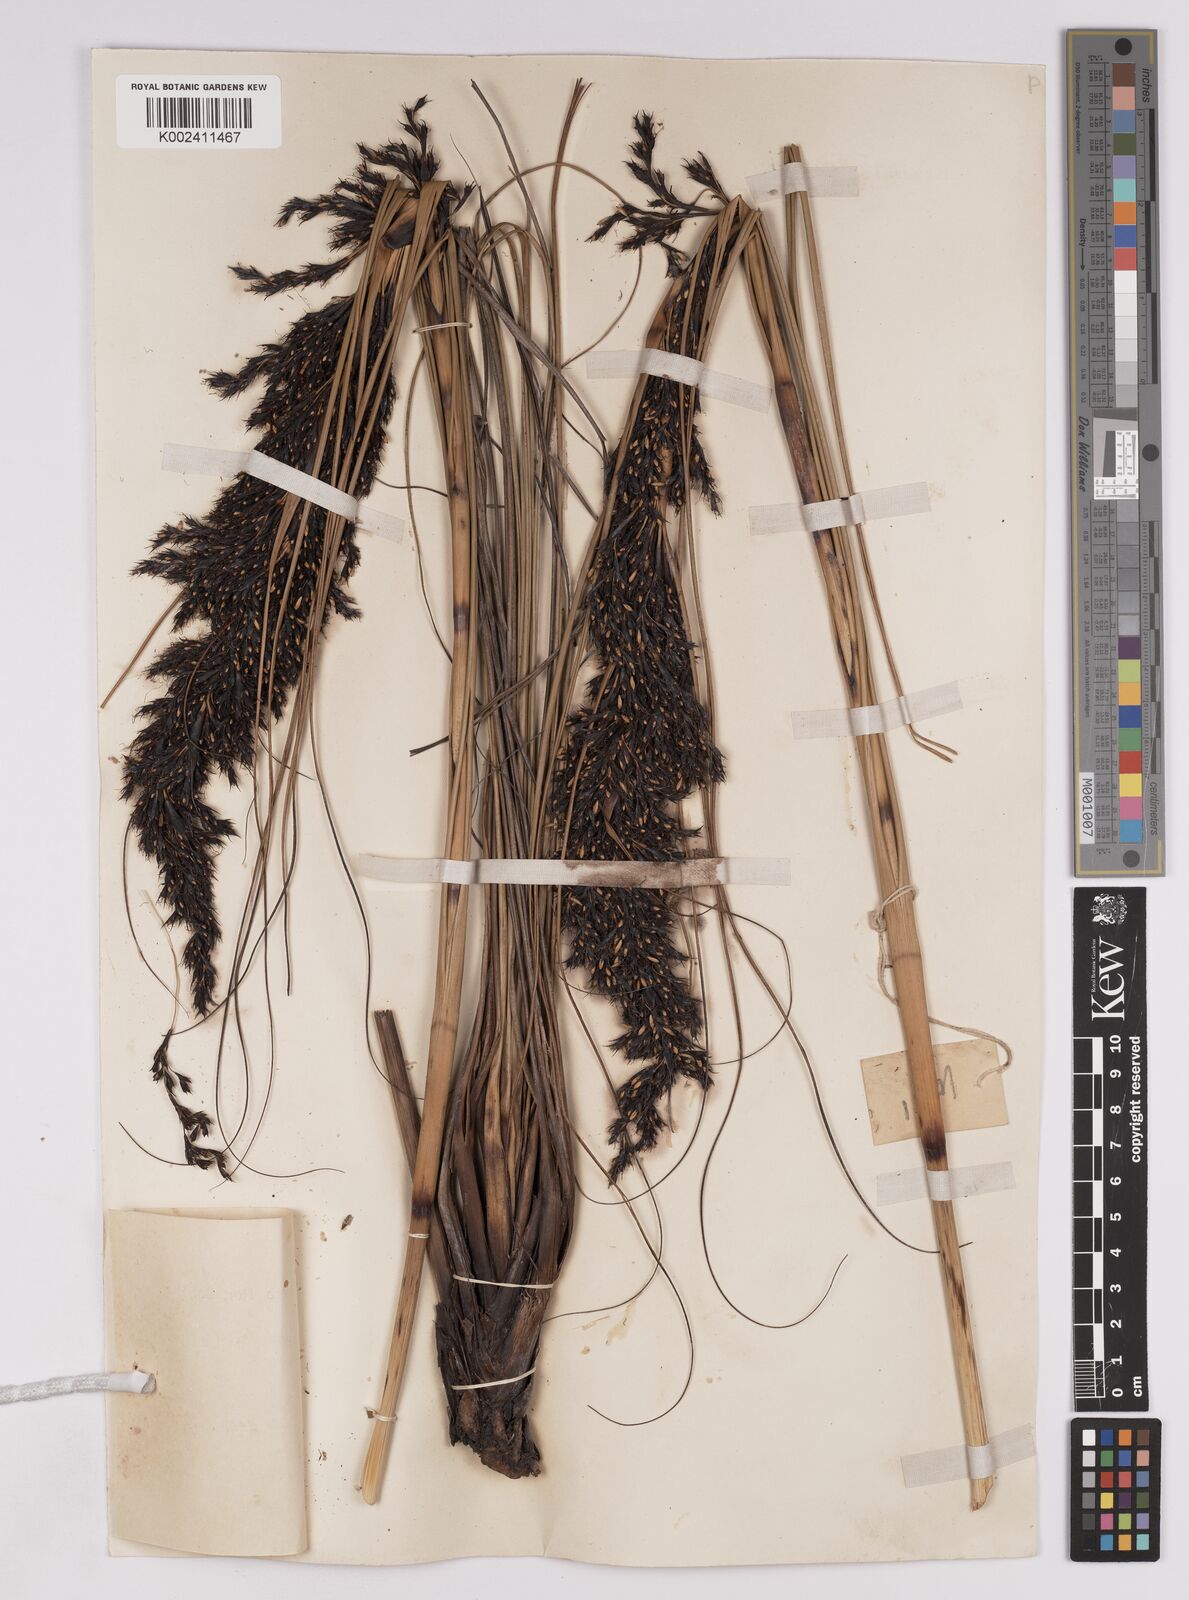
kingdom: Plantae
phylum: Tracheophyta
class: Liliopsida
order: Poales
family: Cyperaceae
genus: Gahnia
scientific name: Gahnia javanica
